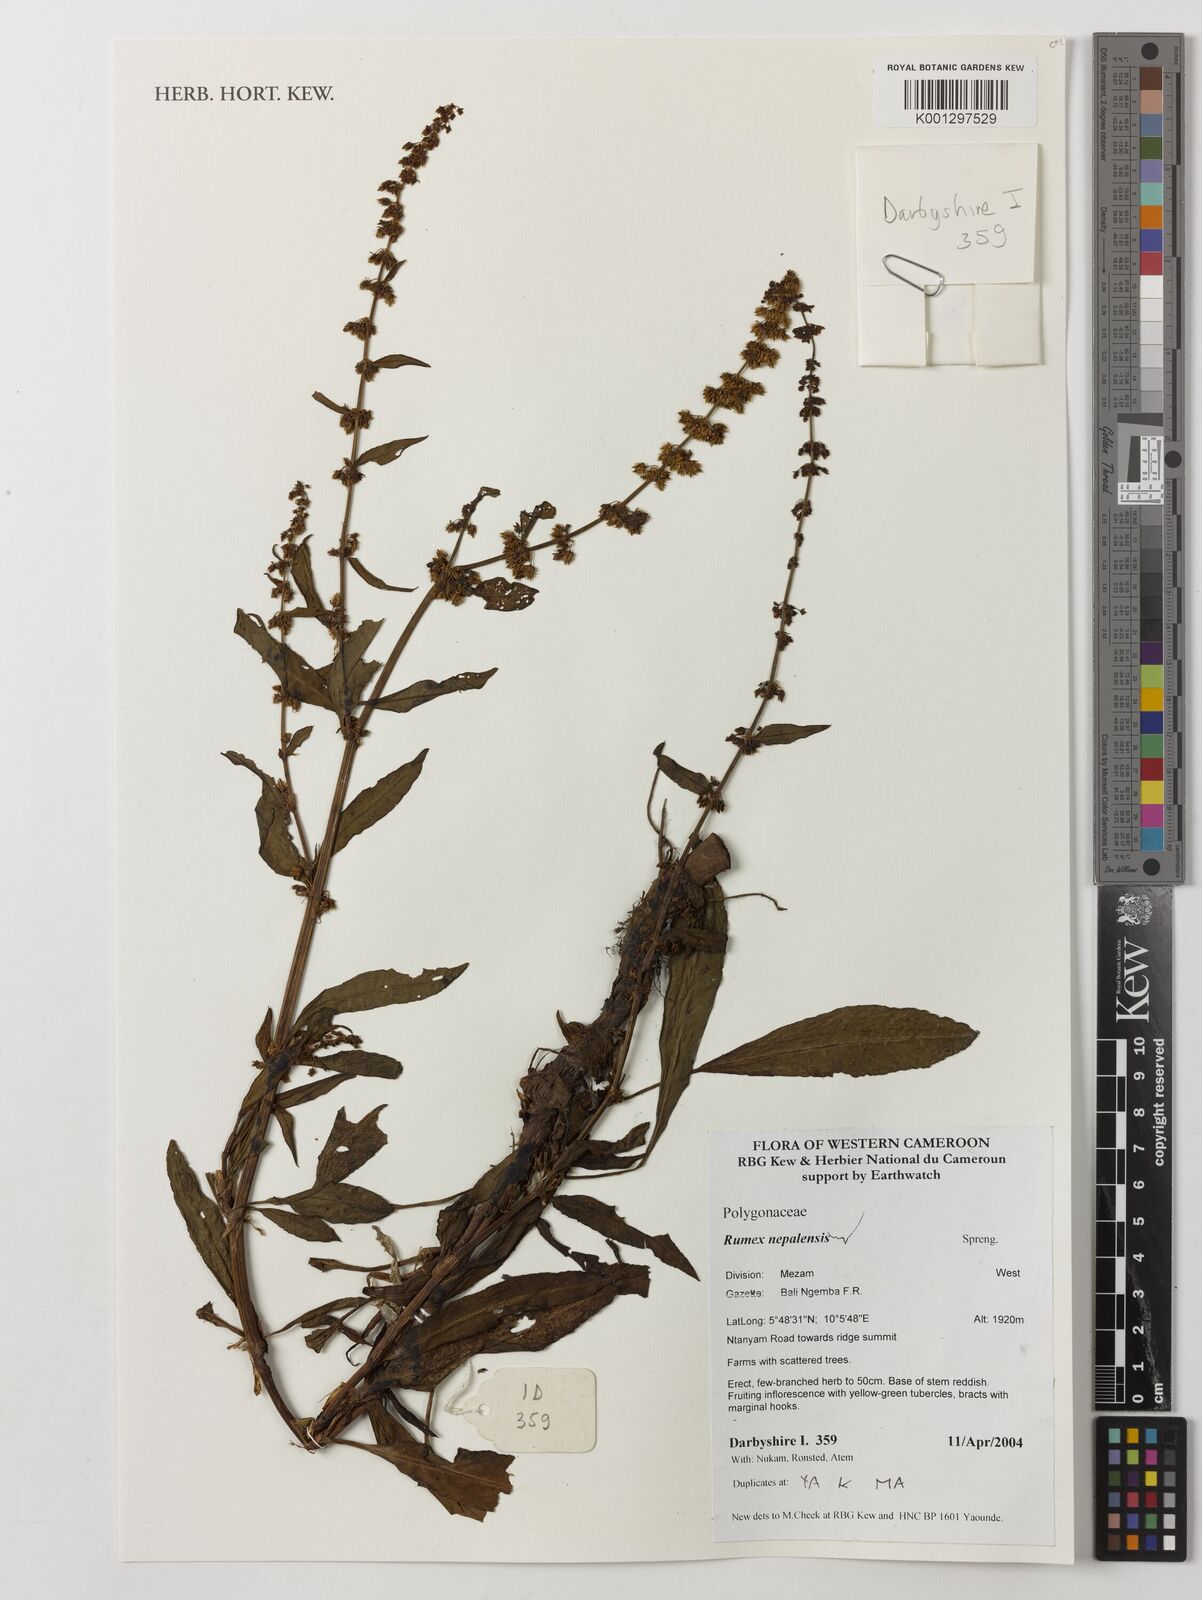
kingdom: Plantae
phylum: Tracheophyta
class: Magnoliopsida
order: Caryophyllales
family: Polygonaceae
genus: Rumex
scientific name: Rumex nepalensis
